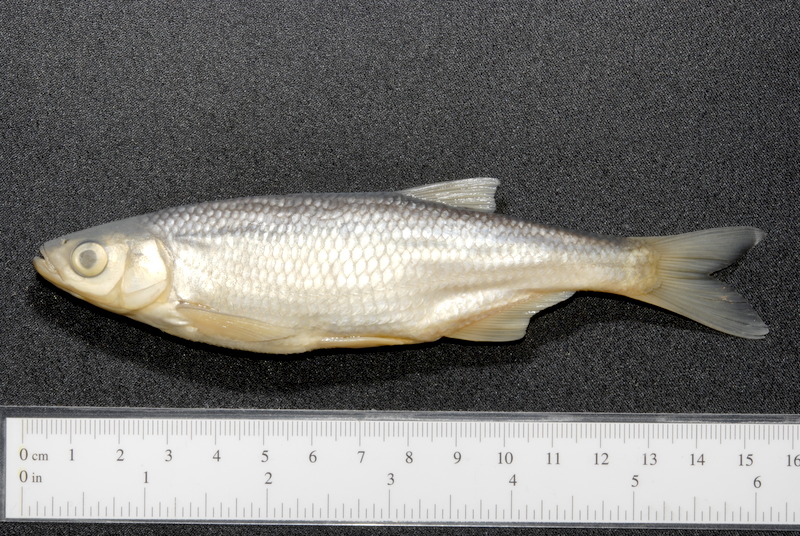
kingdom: Animalia
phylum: Chordata
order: Cypriniformes
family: Cyprinidae
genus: Alburnus
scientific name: Alburnus alburnus
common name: Bleak
